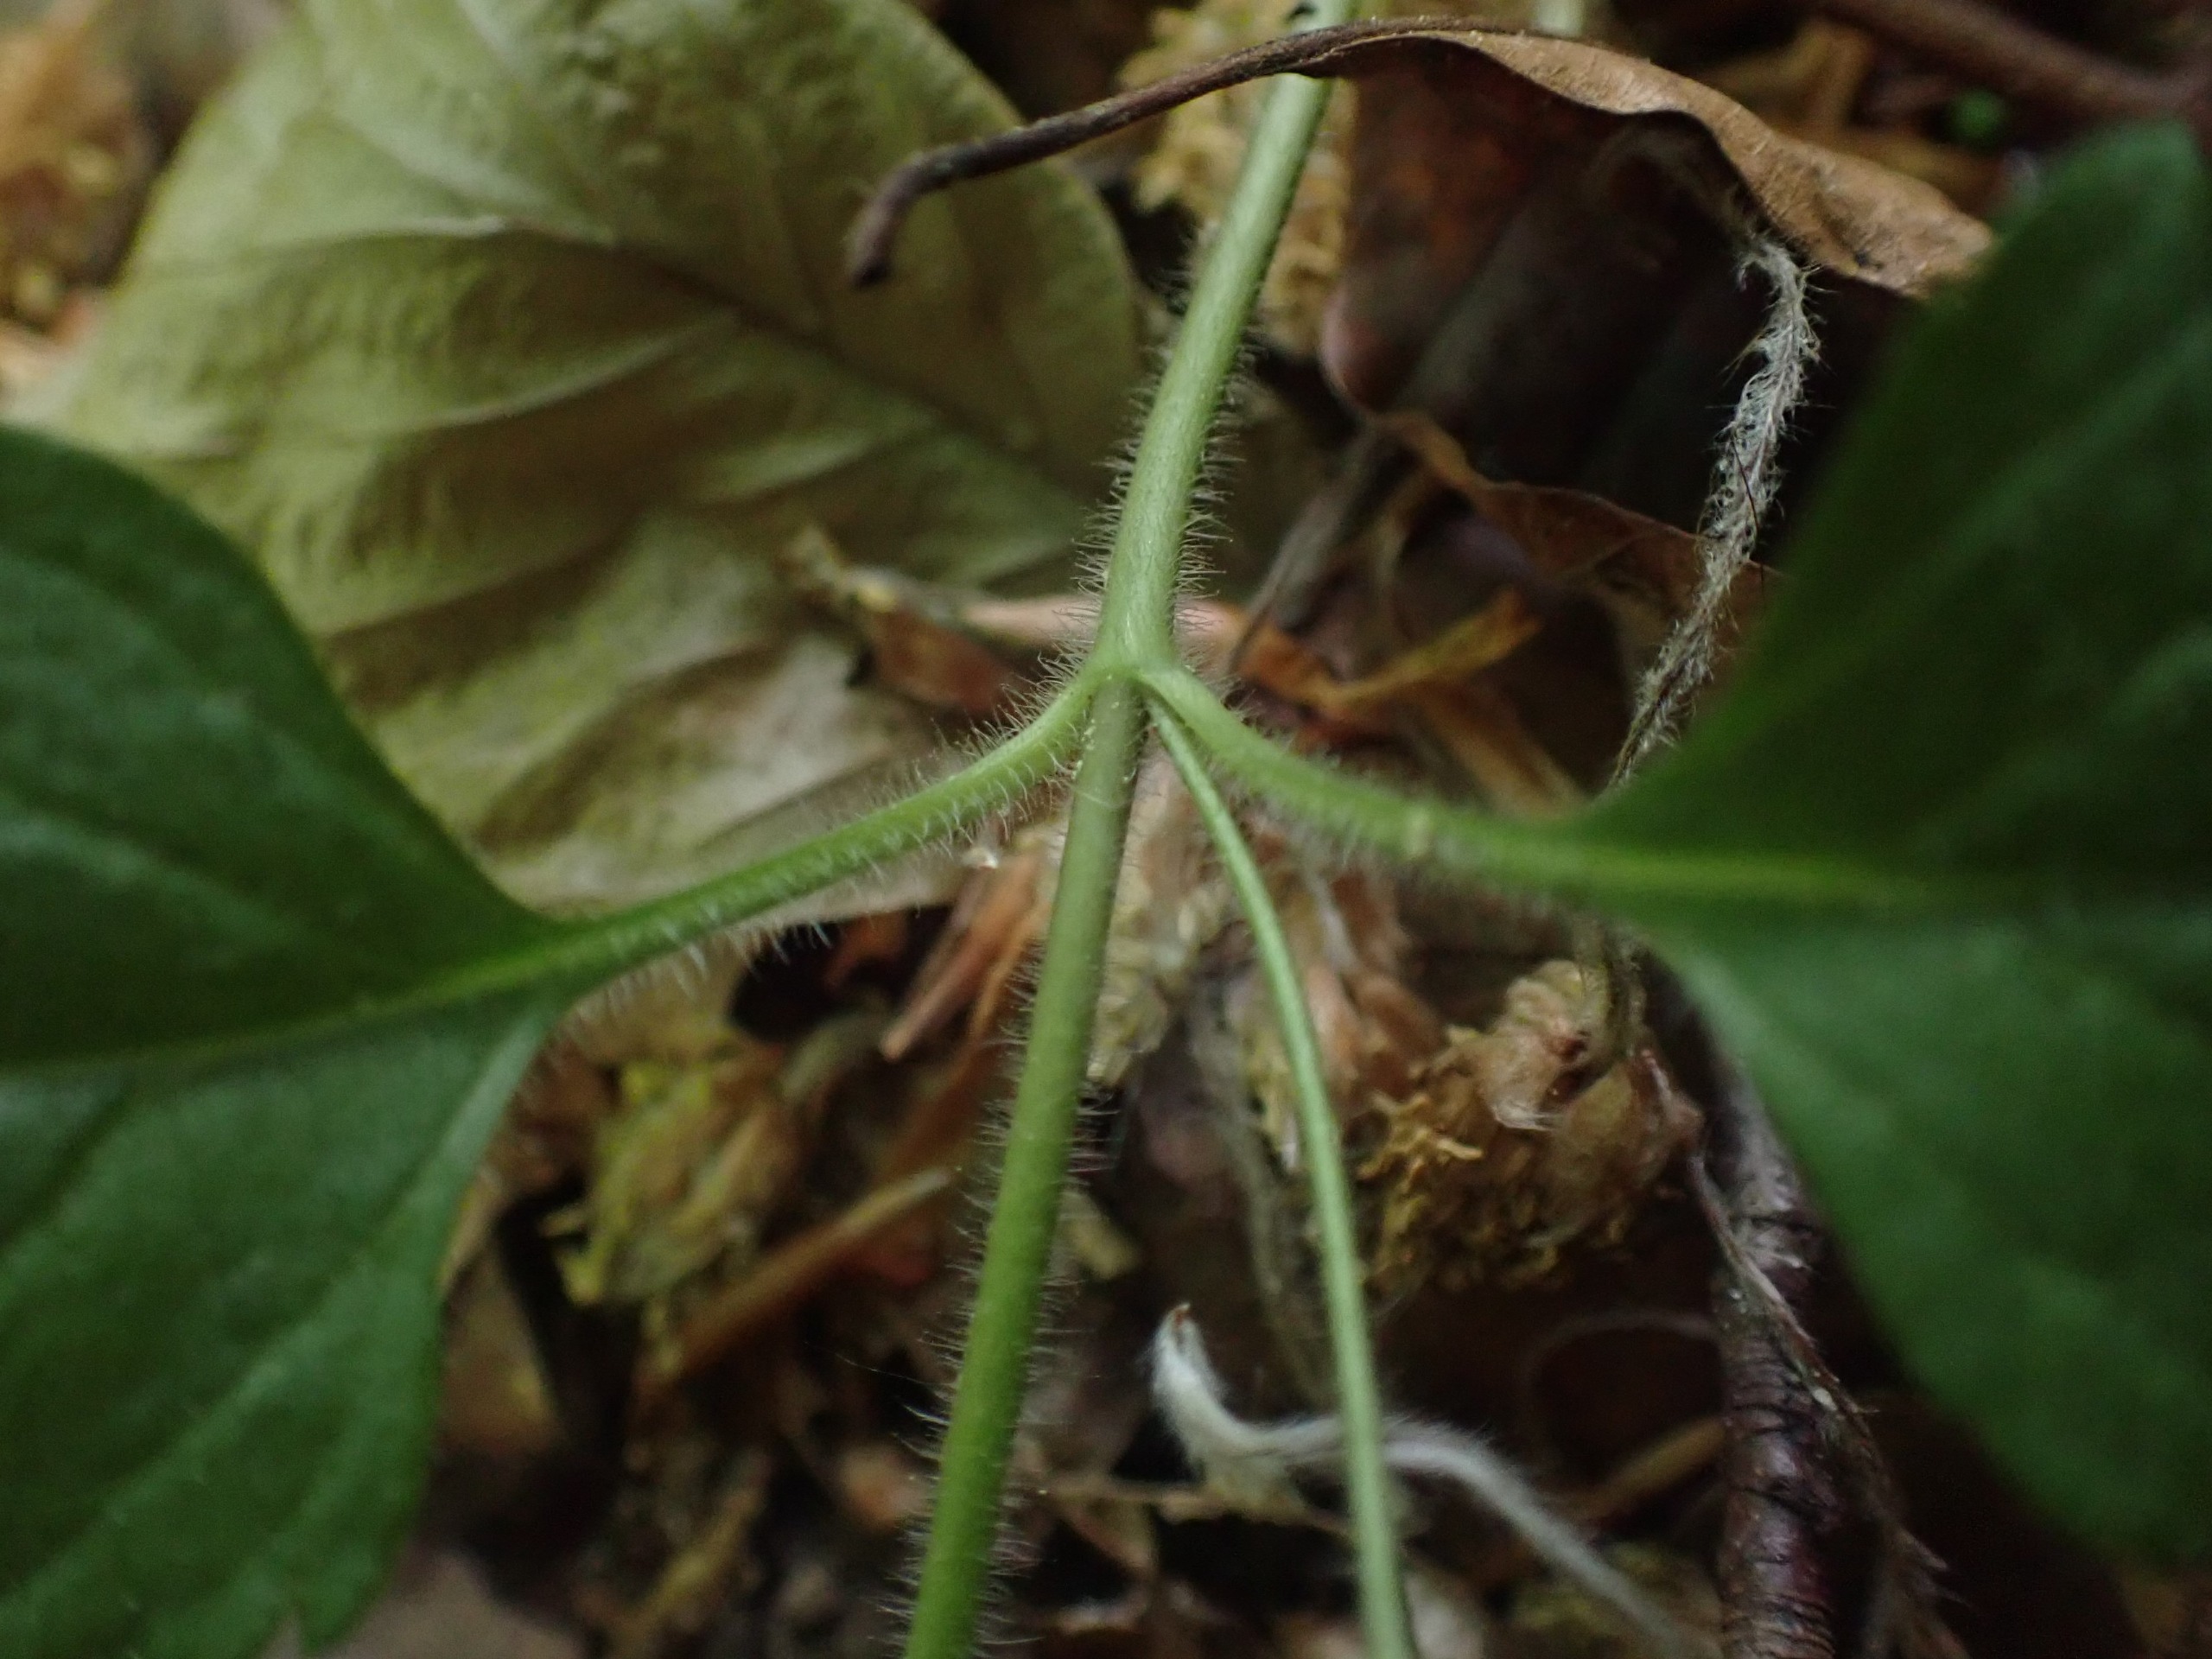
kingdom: Plantae
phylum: Tracheophyta
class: Magnoliopsida
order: Lamiales
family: Plantaginaceae
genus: Veronica
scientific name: Veronica montana
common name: Bjerg-ærenpris
